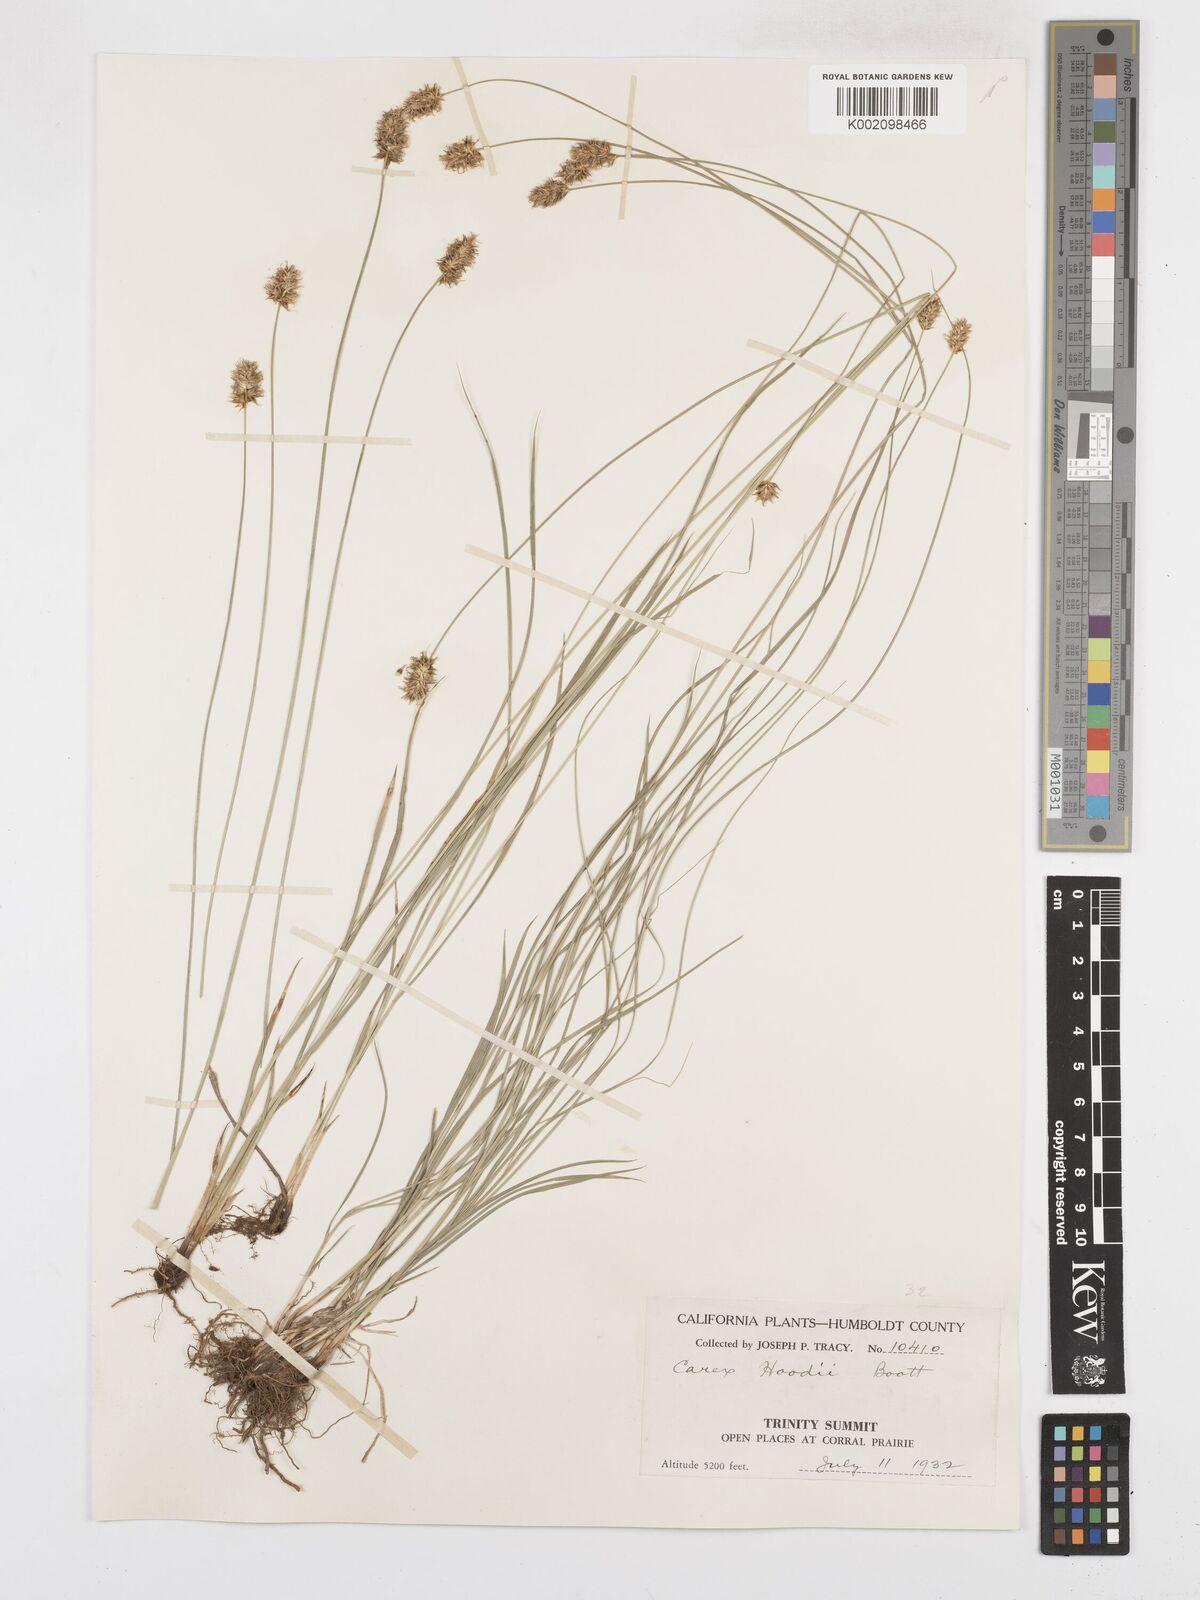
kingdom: Plantae
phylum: Tracheophyta
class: Liliopsida
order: Poales
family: Cyperaceae
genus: Carex
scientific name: Carex hoodii
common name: Hood's sedge
